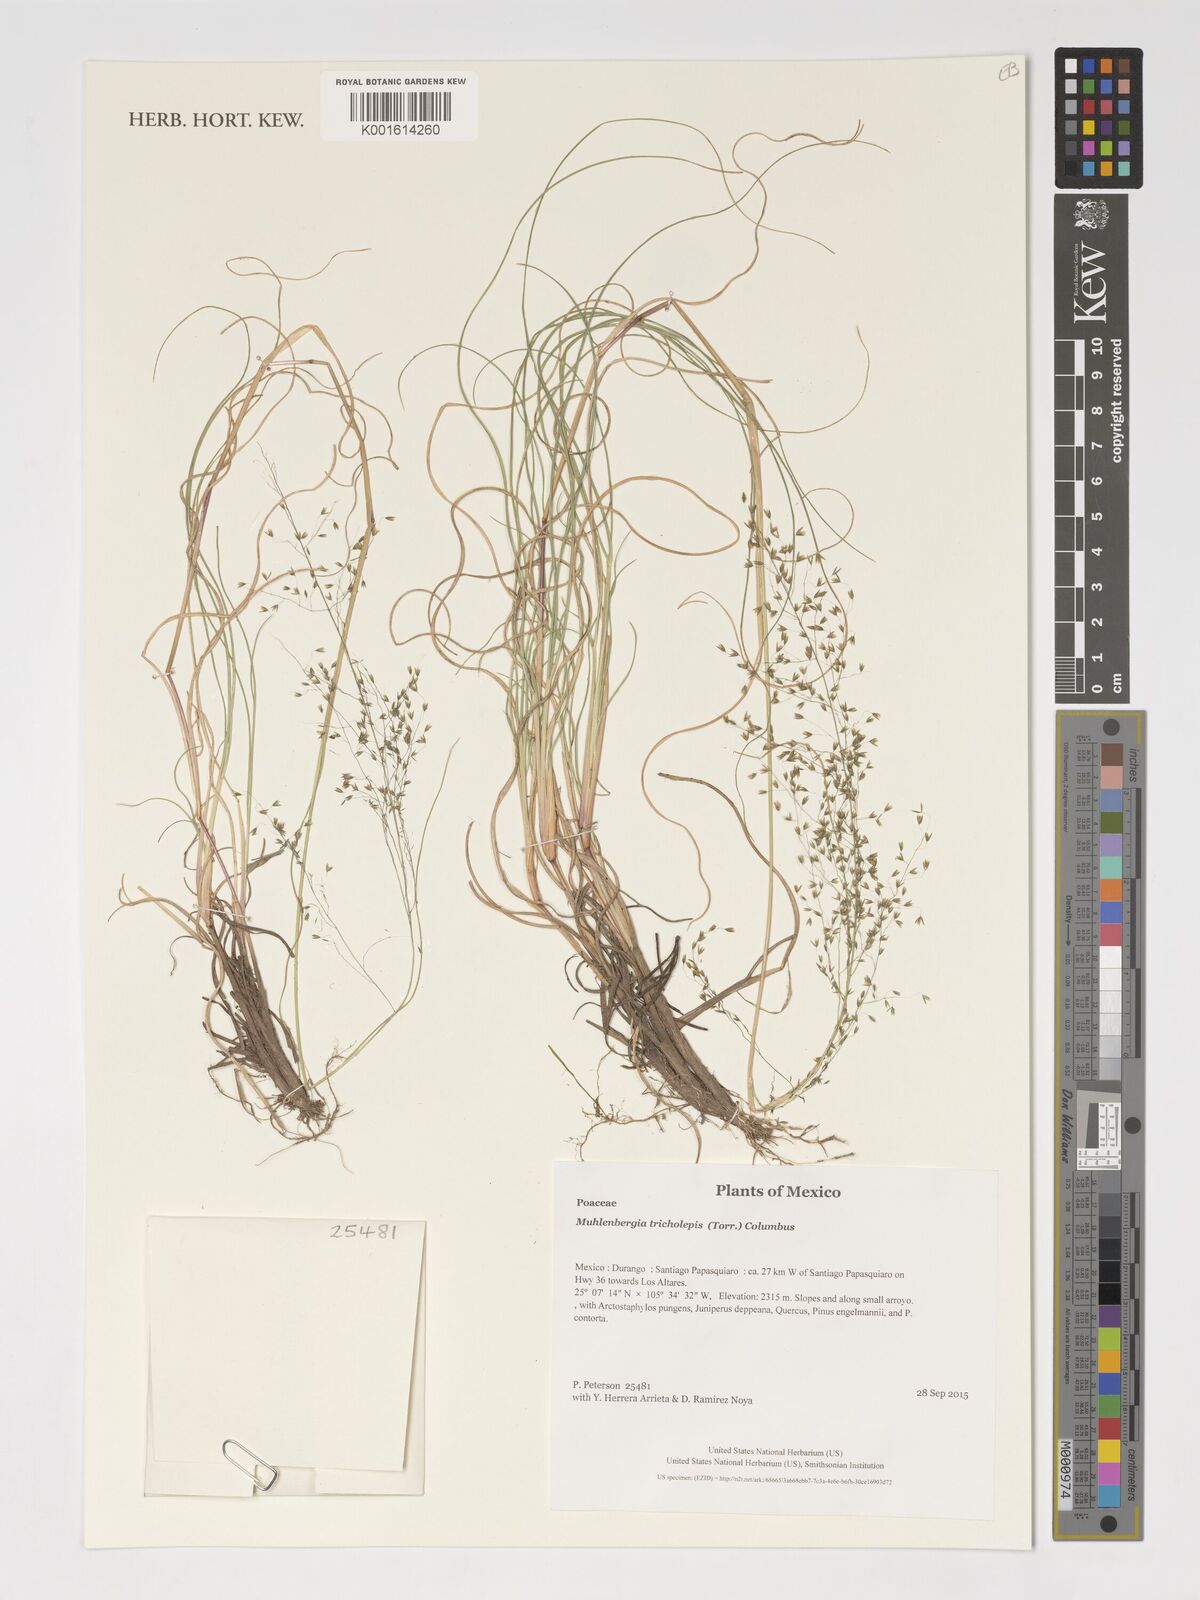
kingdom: Plantae
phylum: Tracheophyta
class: Liliopsida
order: Poales
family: Poaceae
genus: Muhlenbergia
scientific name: Muhlenbergia tricholepis
